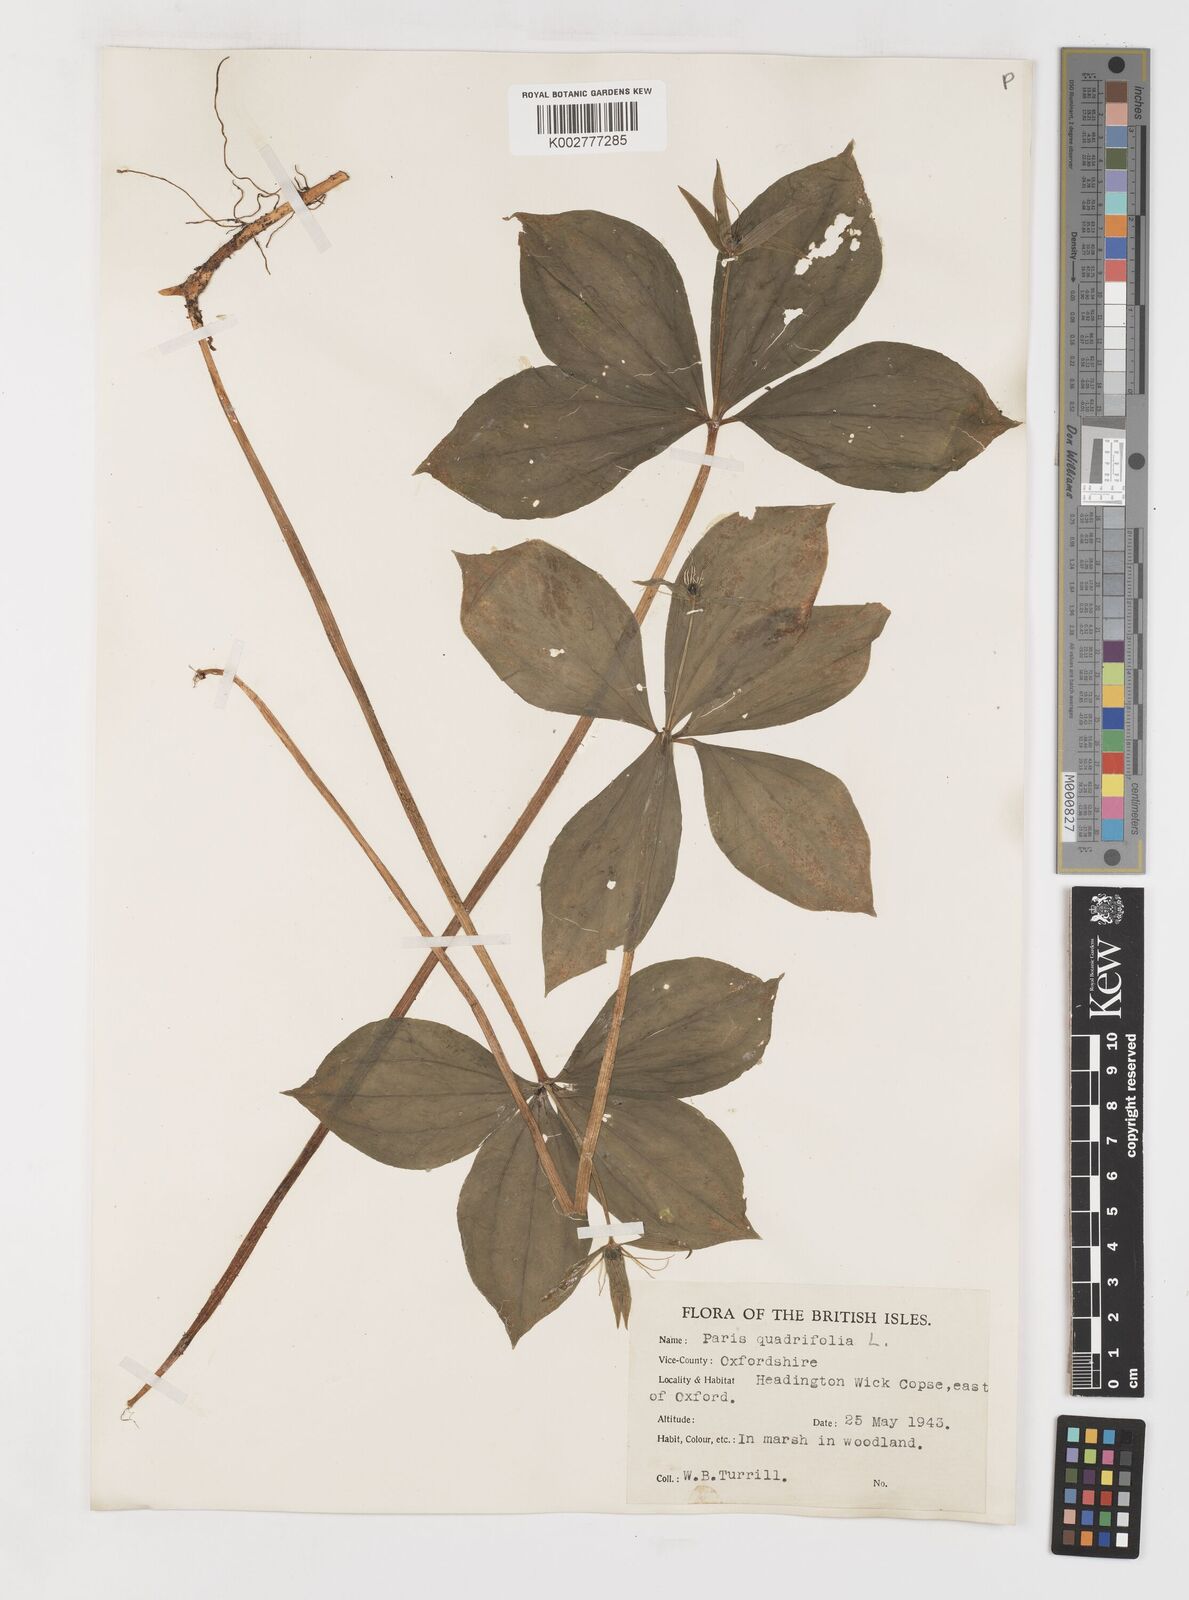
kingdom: Plantae
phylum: Tracheophyta
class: Liliopsida
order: Liliales
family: Melanthiaceae
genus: Paris
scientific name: Paris quadrifolia
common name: Herb-paris
